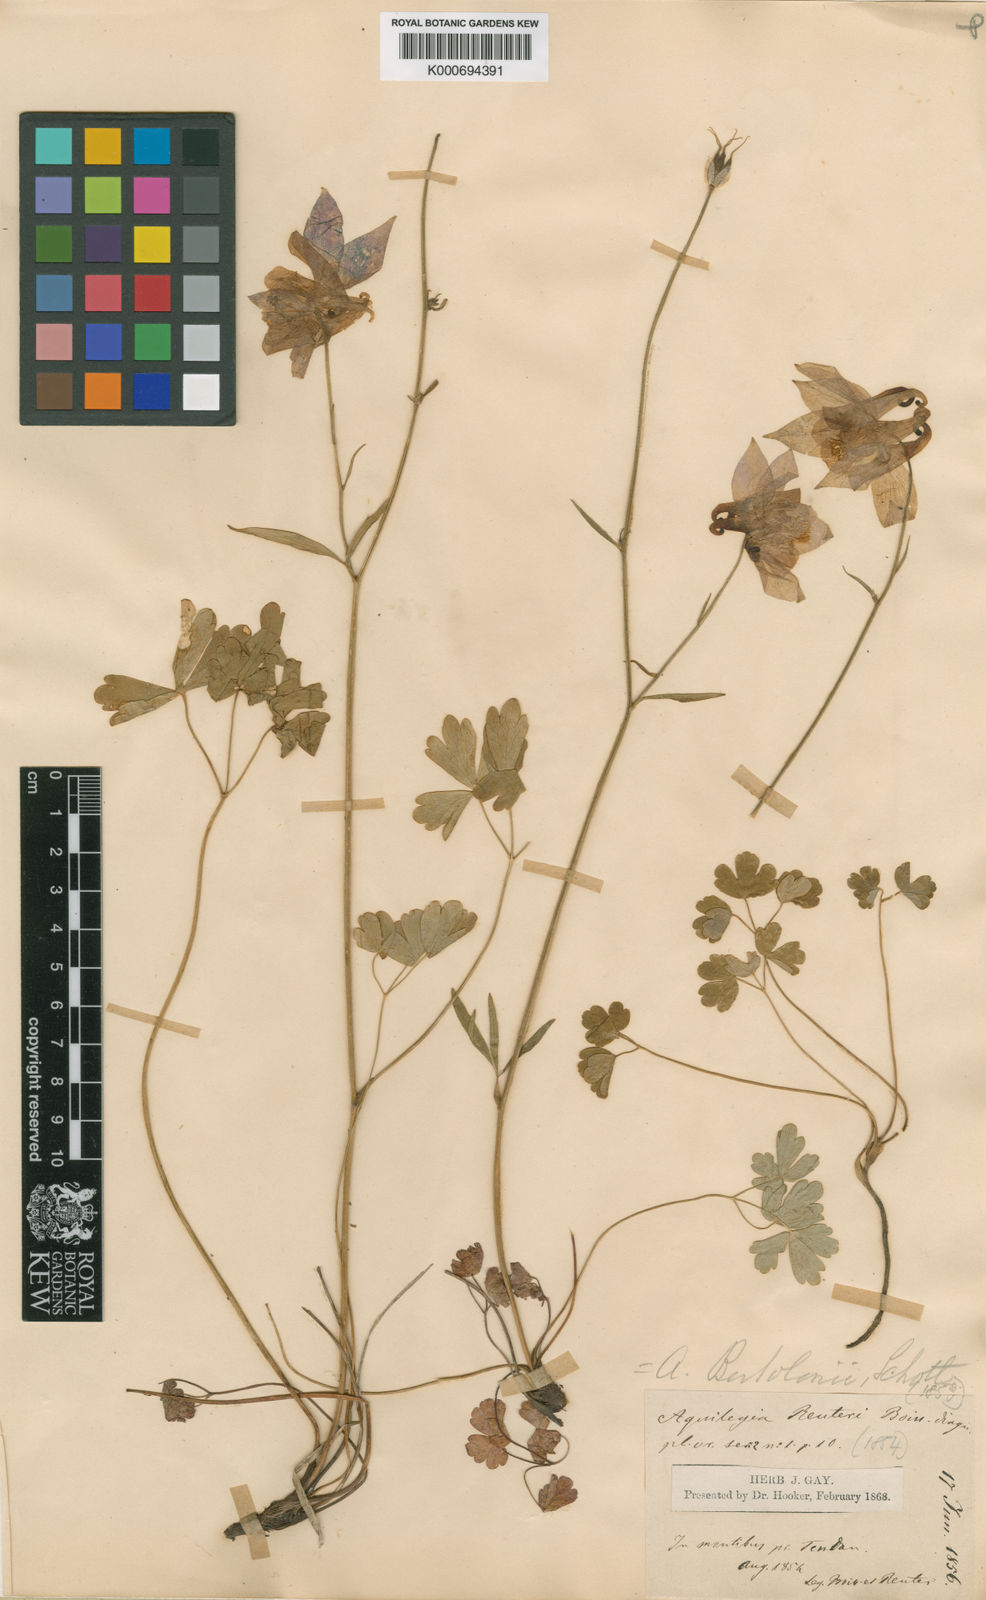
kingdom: Plantae
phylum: Tracheophyta
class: Magnoliopsida
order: Ranunculales
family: Ranunculaceae
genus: Aquilegia
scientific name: Aquilegia bertolonii
